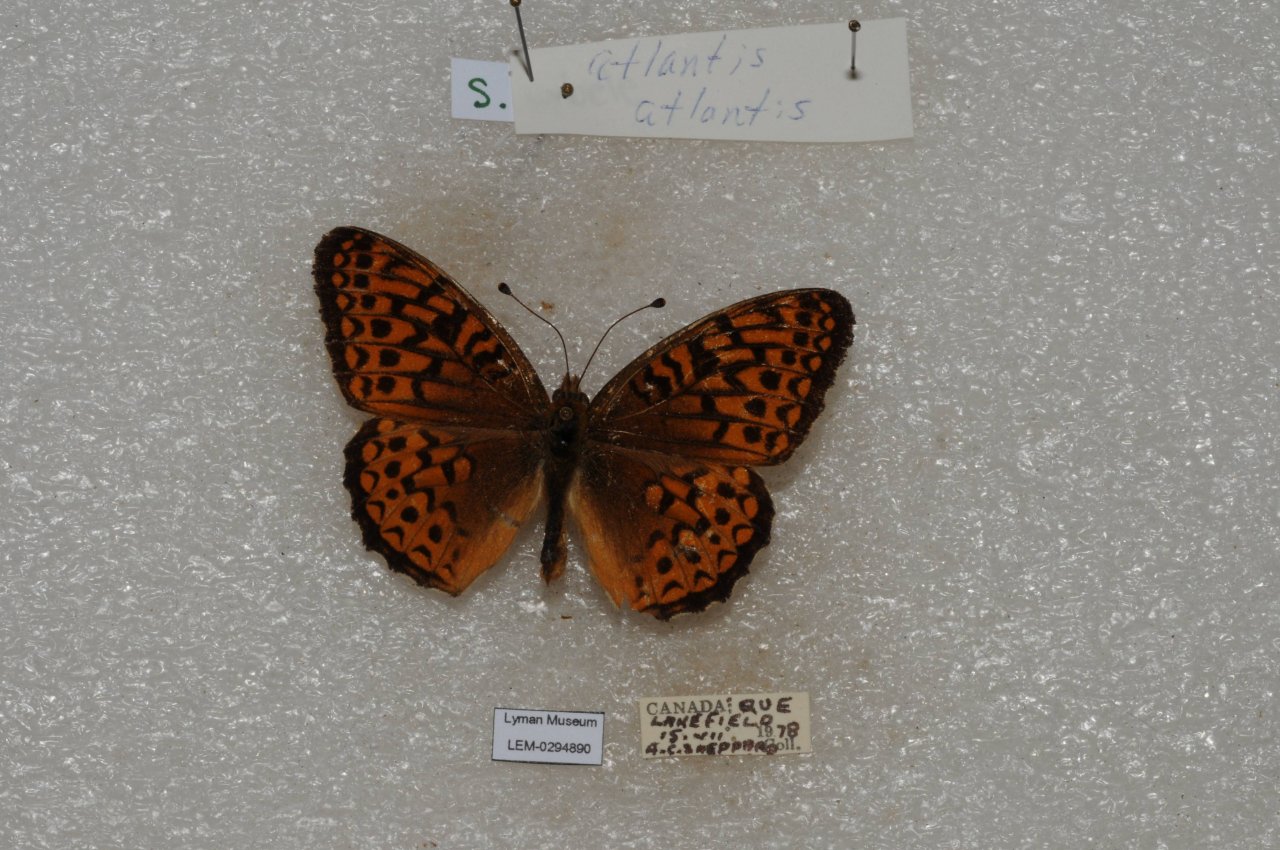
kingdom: Animalia
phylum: Arthropoda
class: Insecta
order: Lepidoptera
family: Nymphalidae
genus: Speyeria
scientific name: Speyeria atlantis
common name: Atlantis Fritillary
